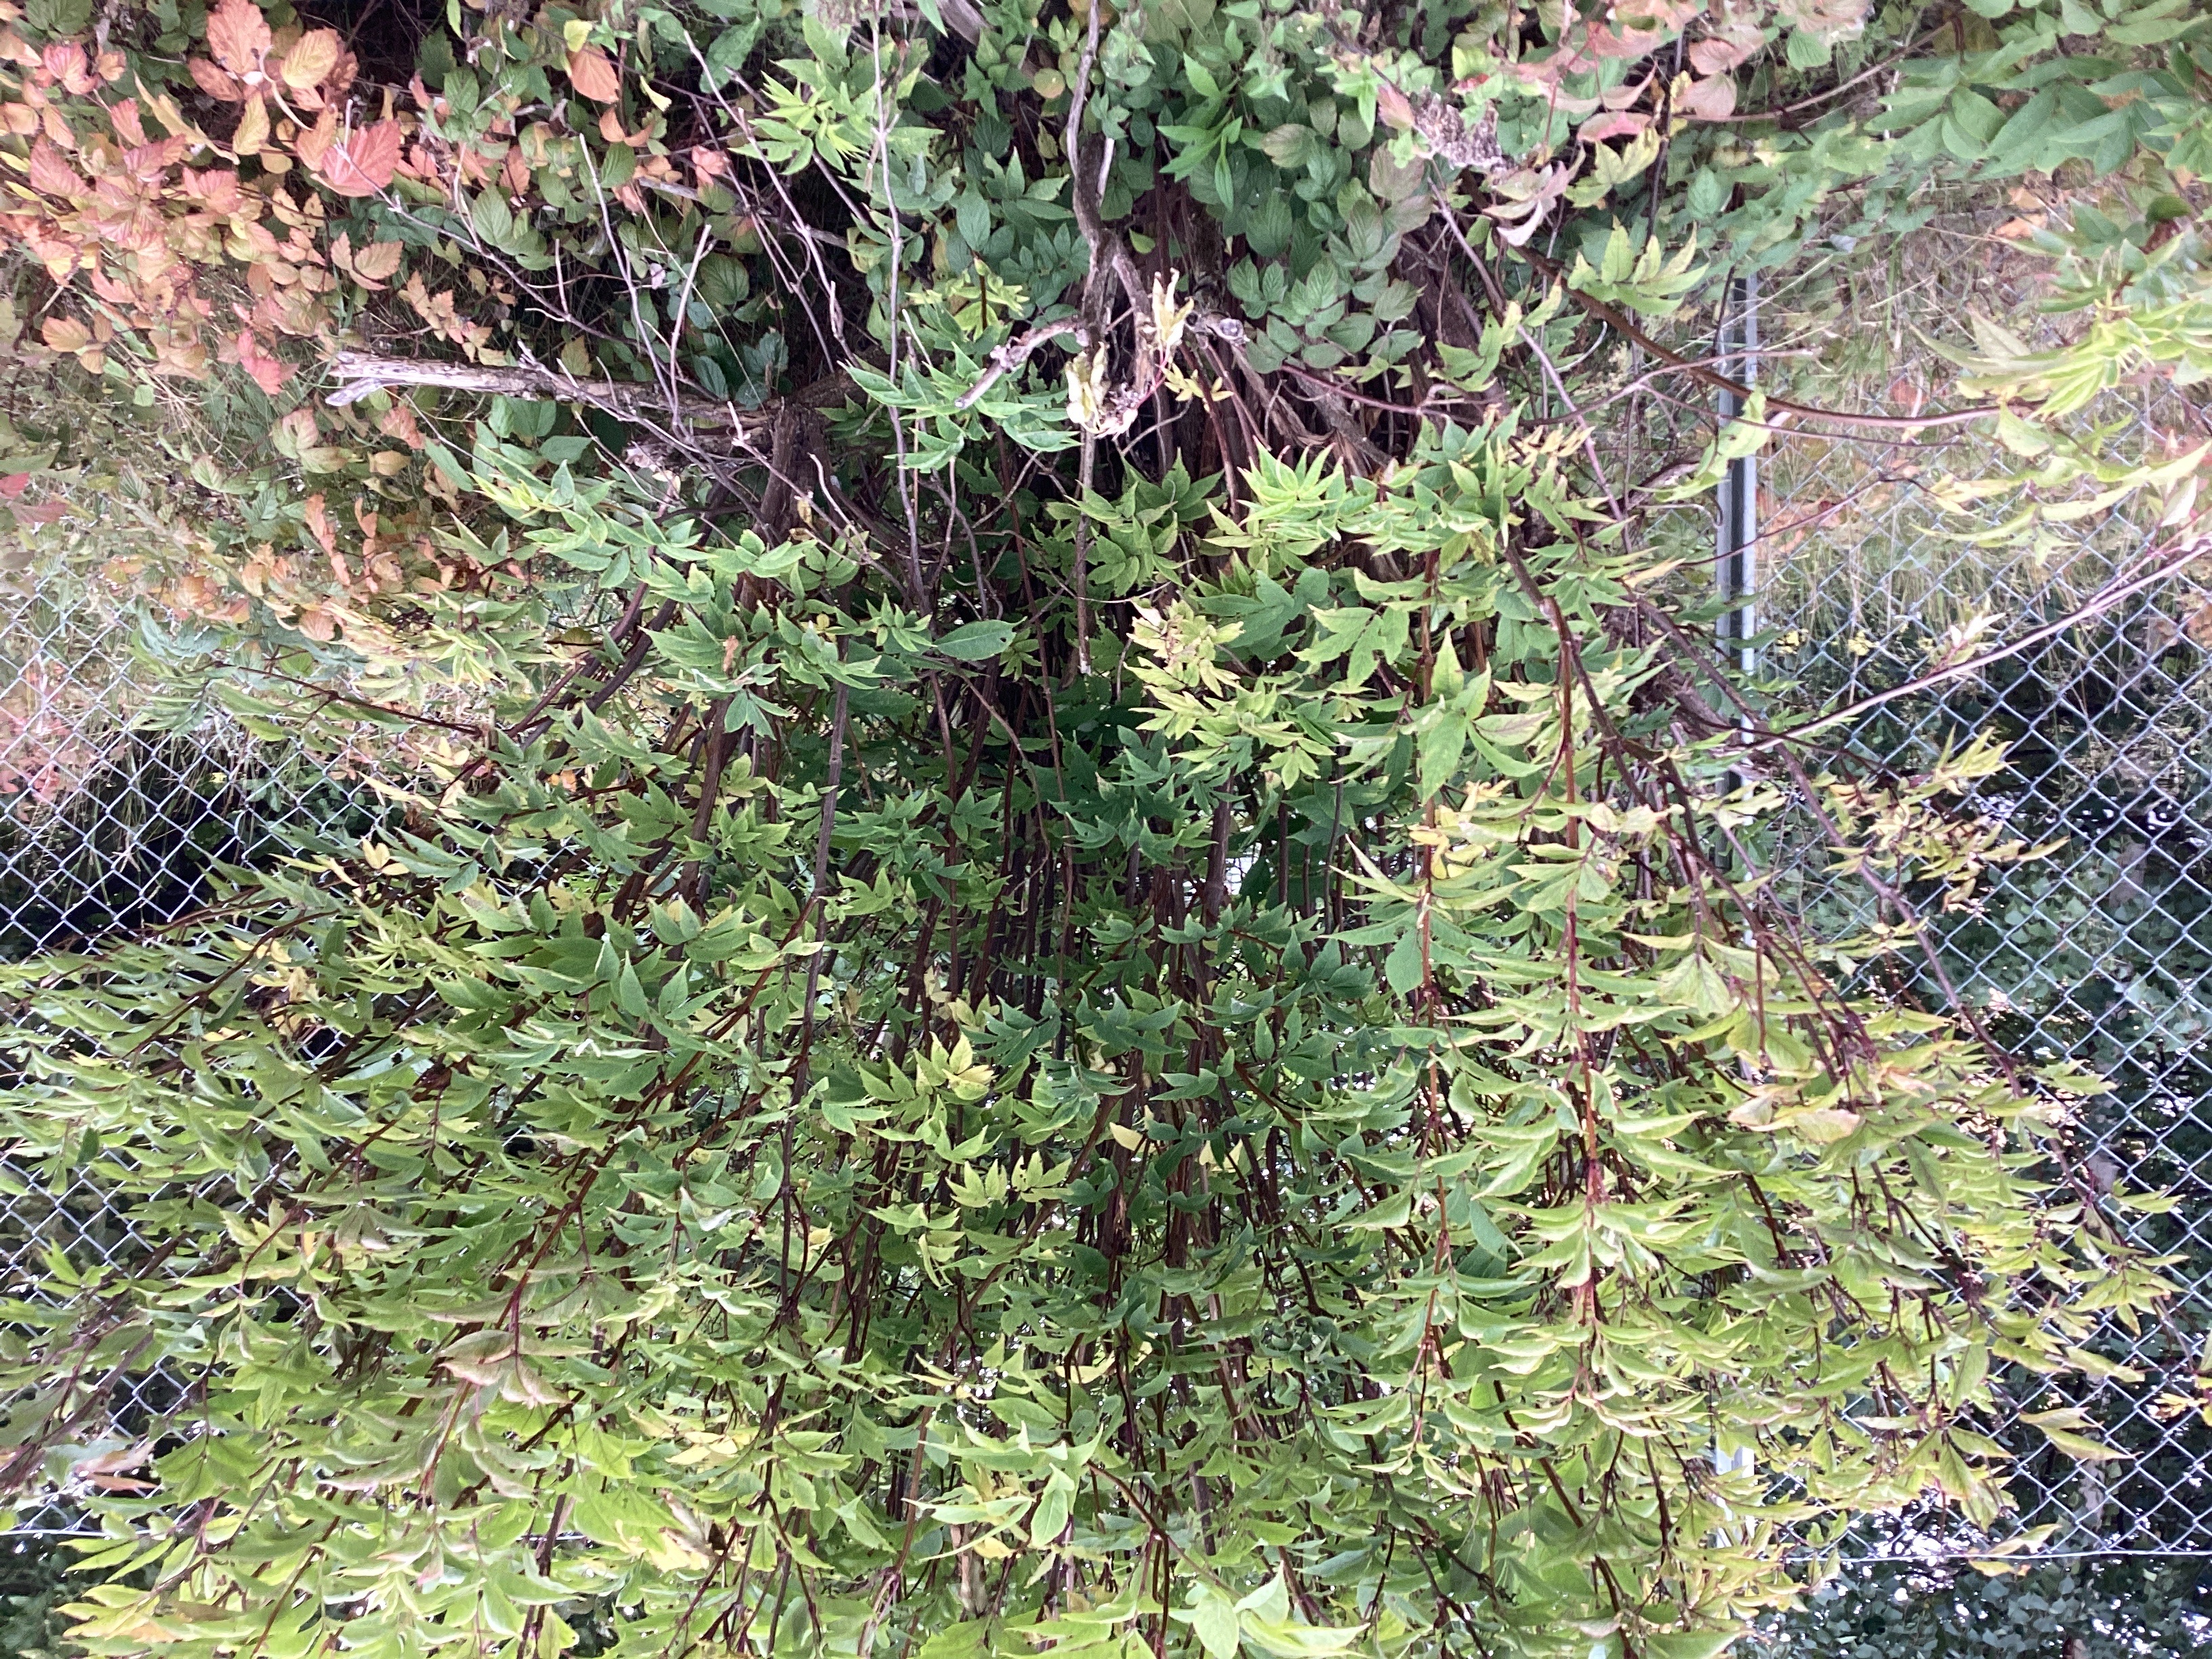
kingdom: Plantae
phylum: Tracheophyta
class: Magnoliopsida
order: Dipsacales
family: Viburnaceae
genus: Sambucus
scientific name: Sambucus racemosa
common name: rødhyll
